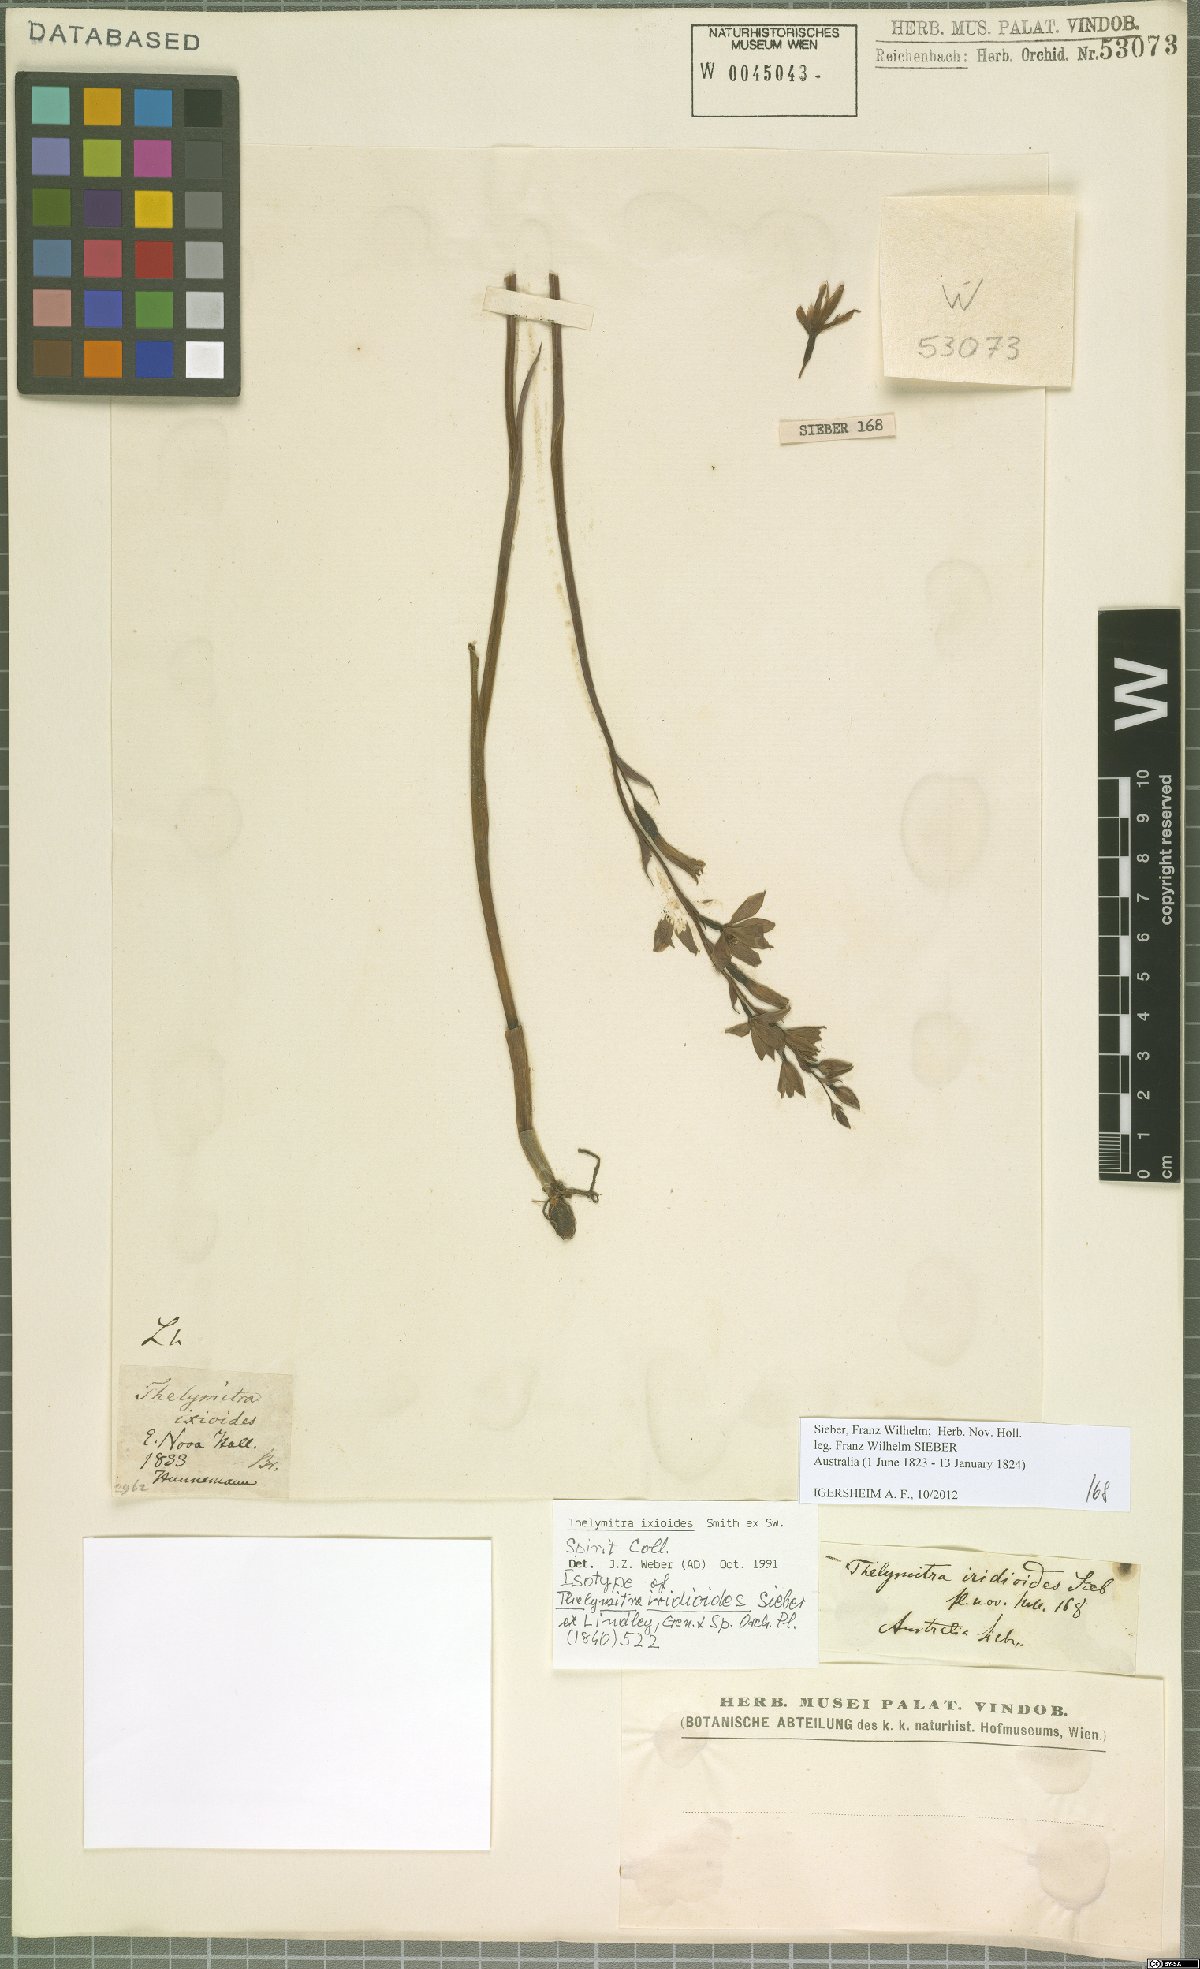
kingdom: Plantae
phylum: Tracheophyta
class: Liliopsida
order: Asparagales
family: Orchidaceae
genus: Thelymitra
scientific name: Thelymitra ixioides
